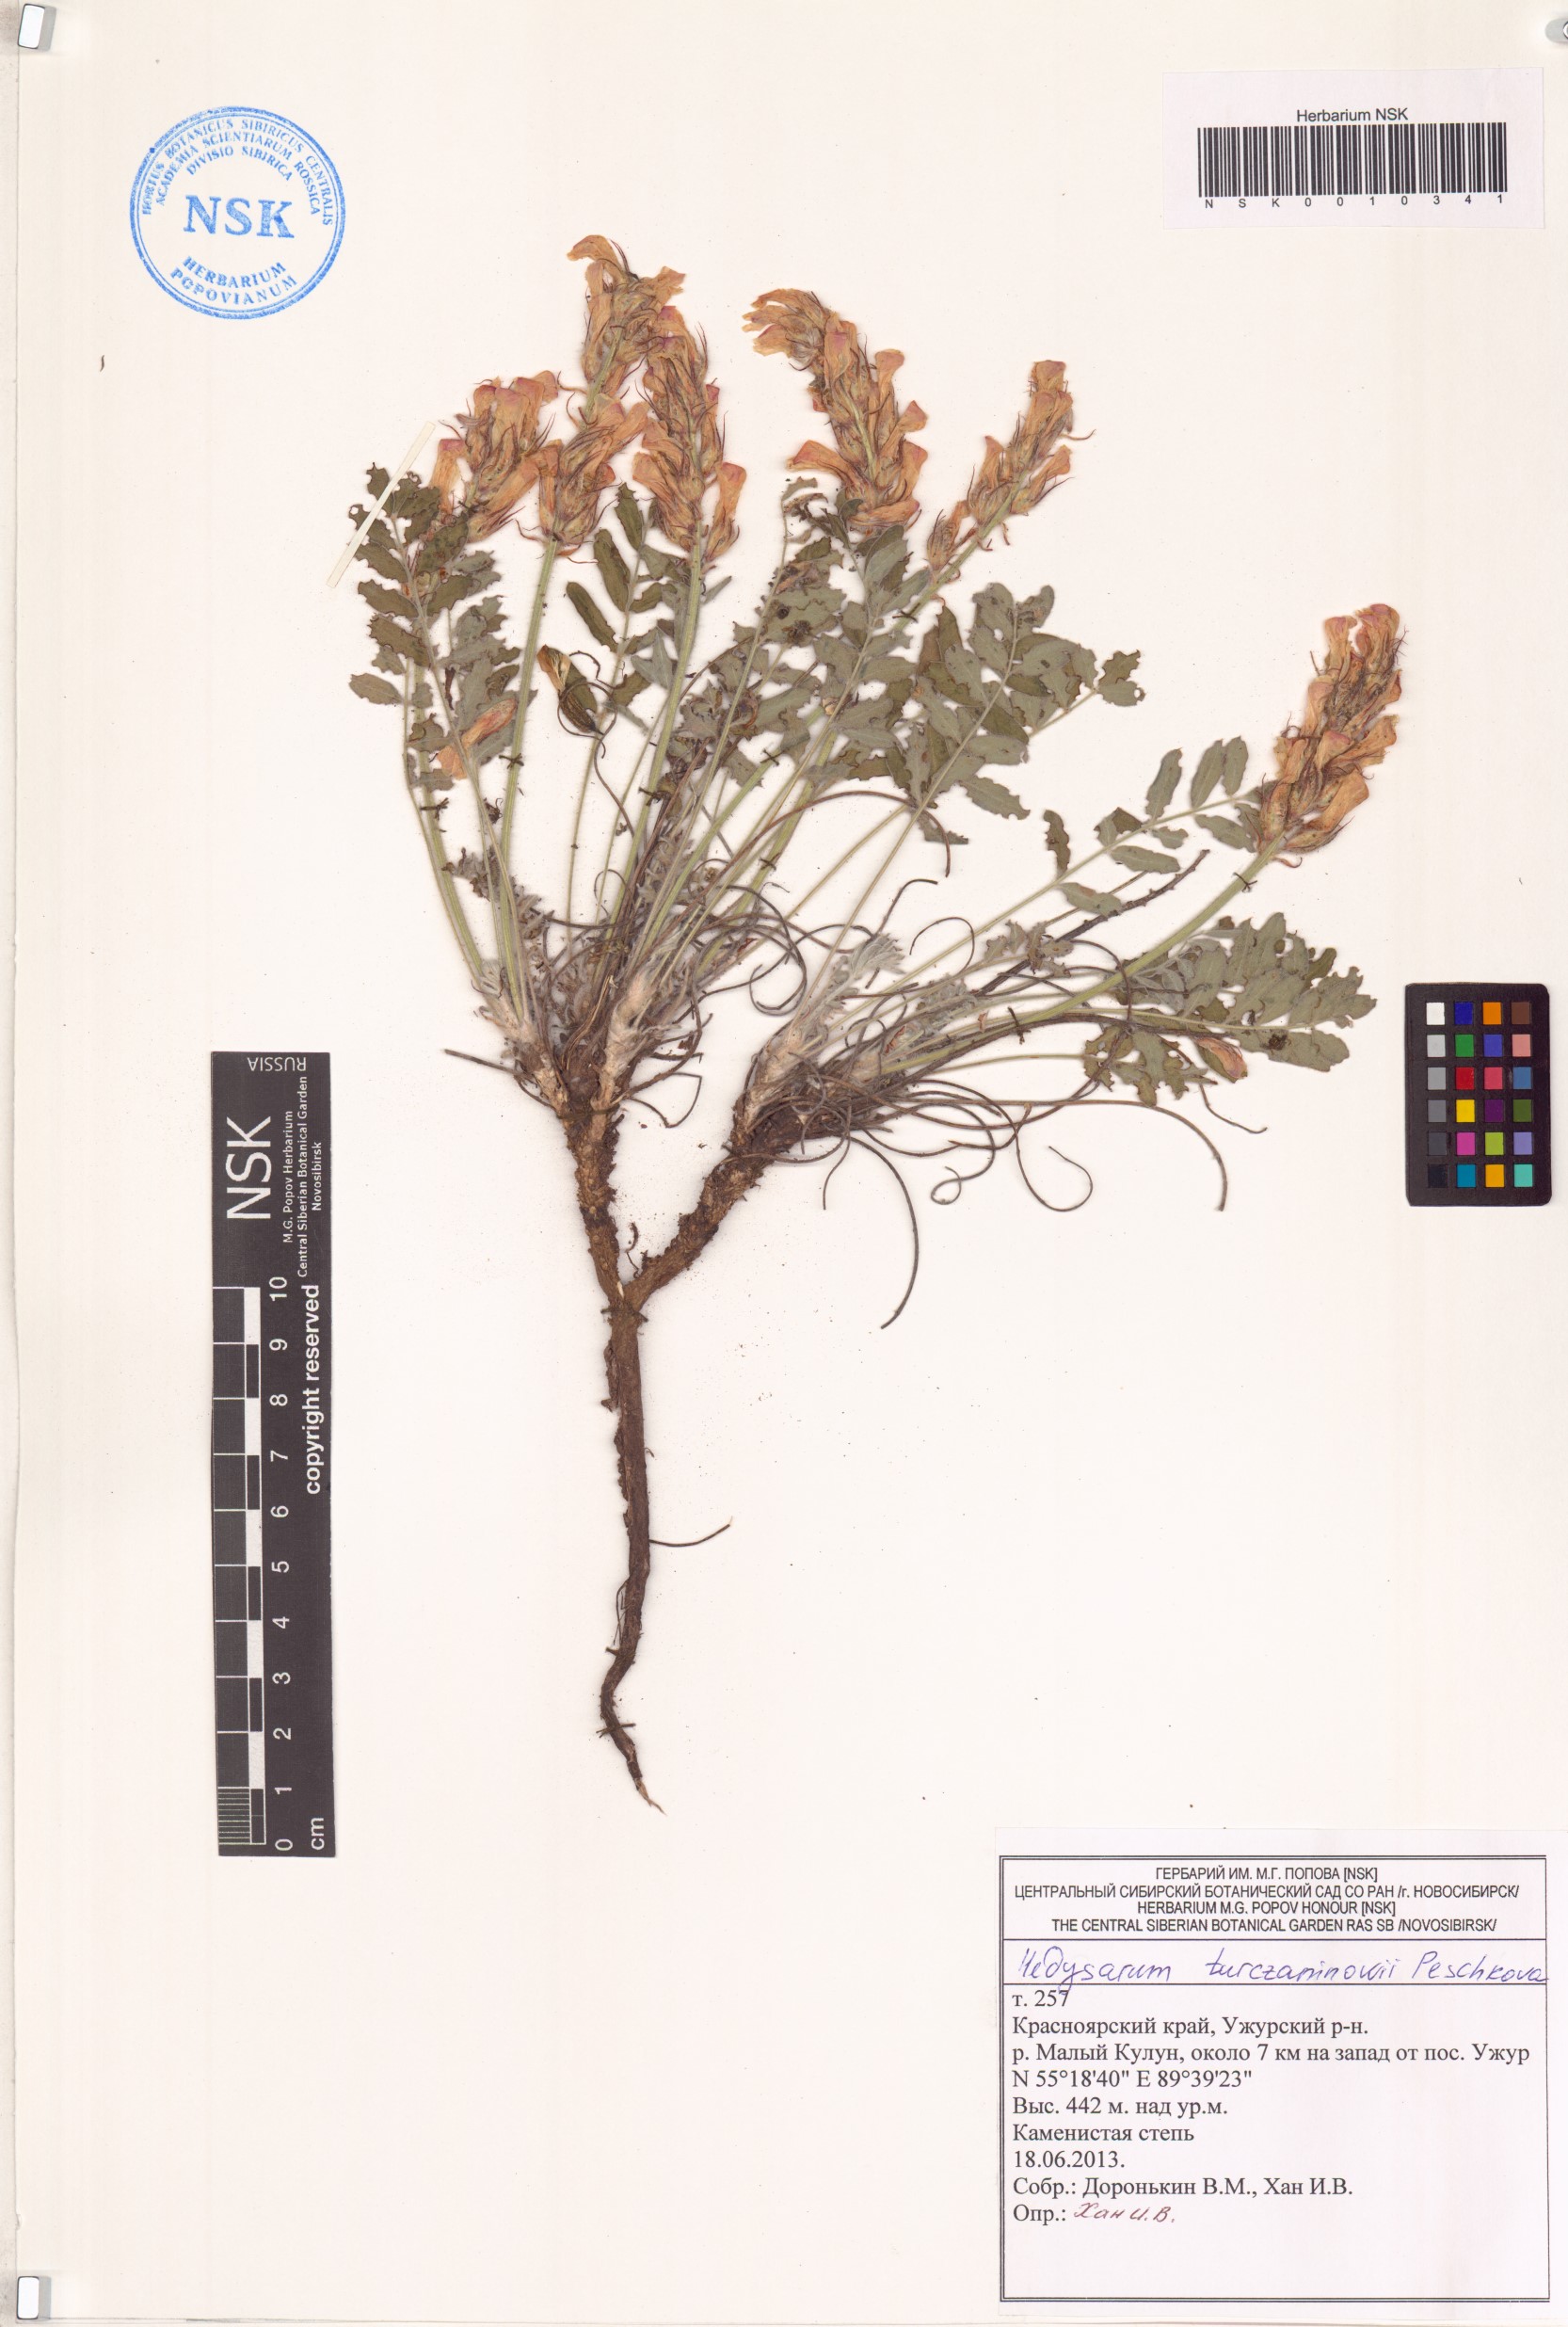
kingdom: Plantae
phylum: Tracheophyta
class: Magnoliopsida
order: Fabales
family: Fabaceae
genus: Hedysarum
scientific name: Hedysarum turczaninovii
